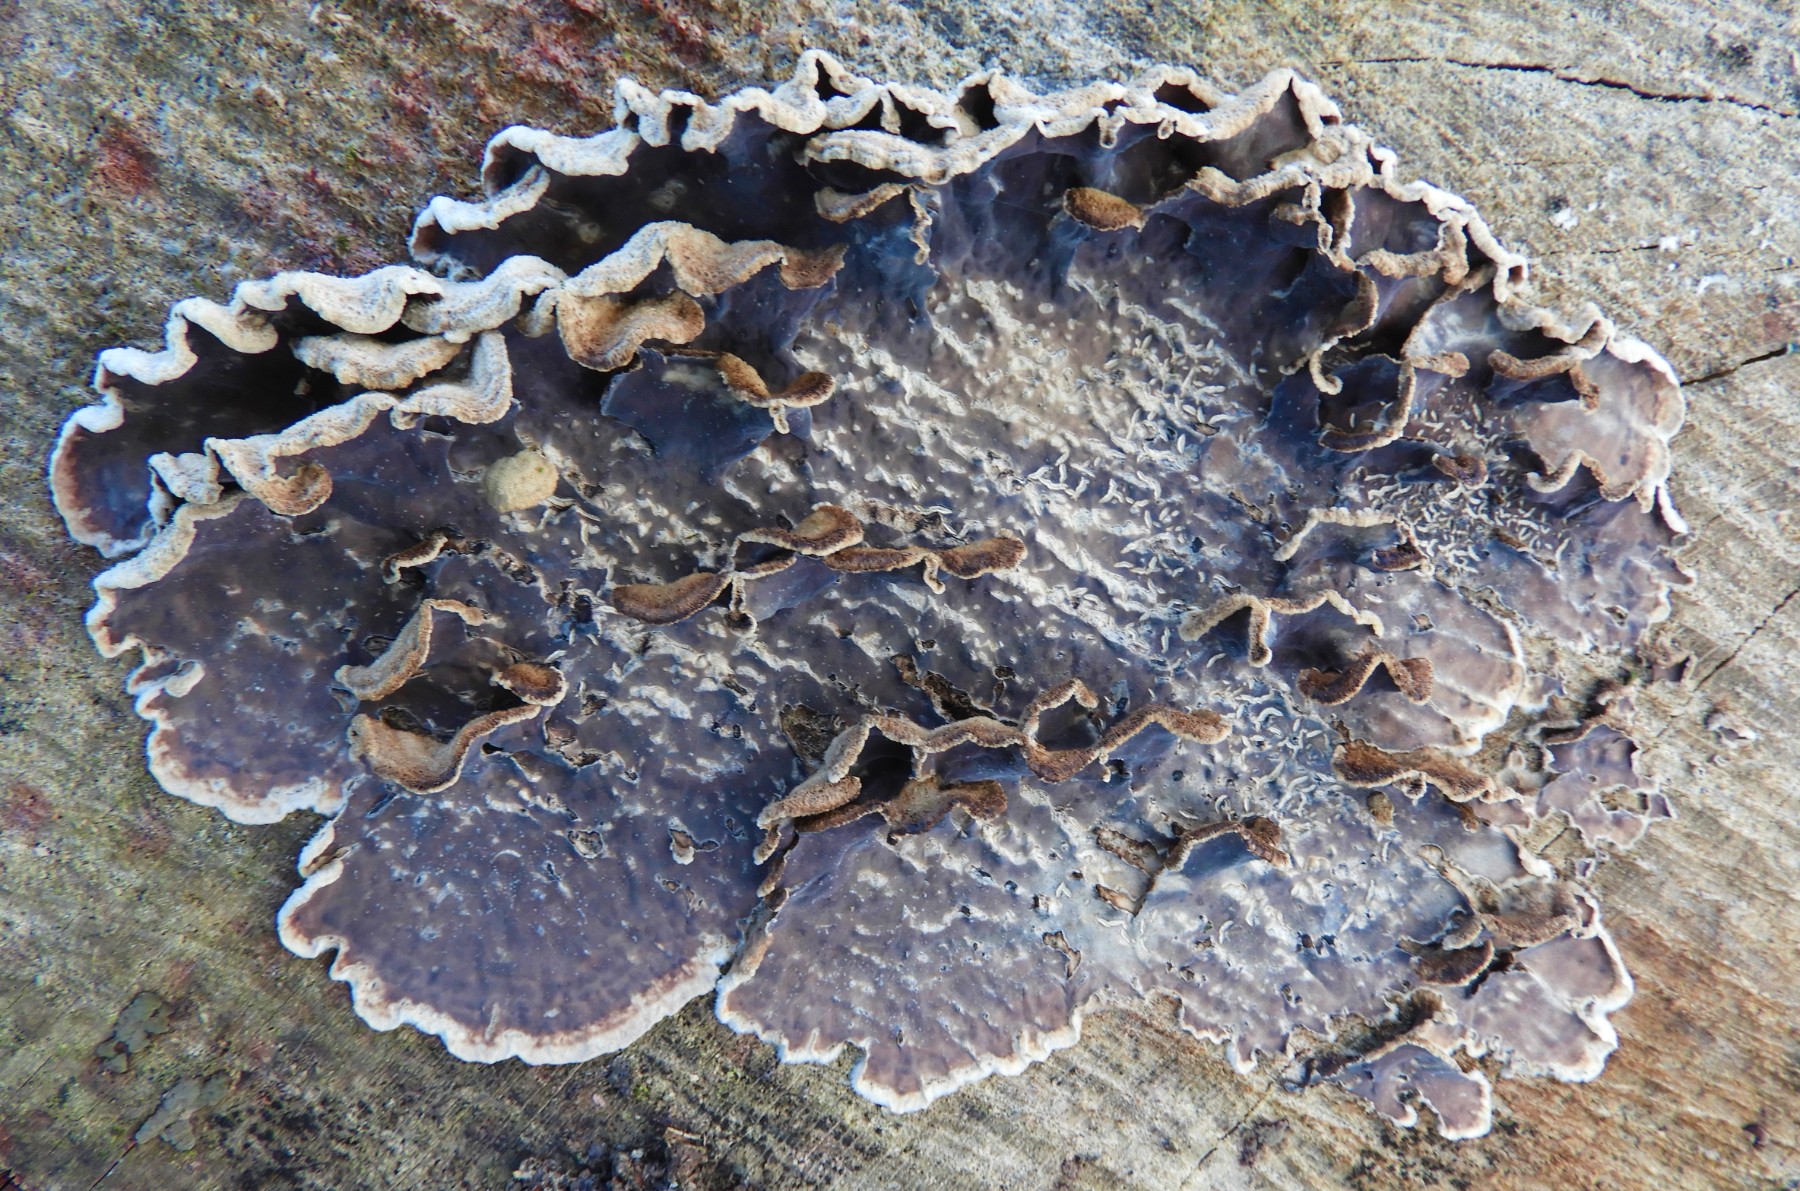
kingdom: Fungi
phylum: Basidiomycota
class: Agaricomycetes
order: Agaricales
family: Cyphellaceae
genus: Chondrostereum
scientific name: Chondrostereum purpureum
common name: purpurlædersvamp
